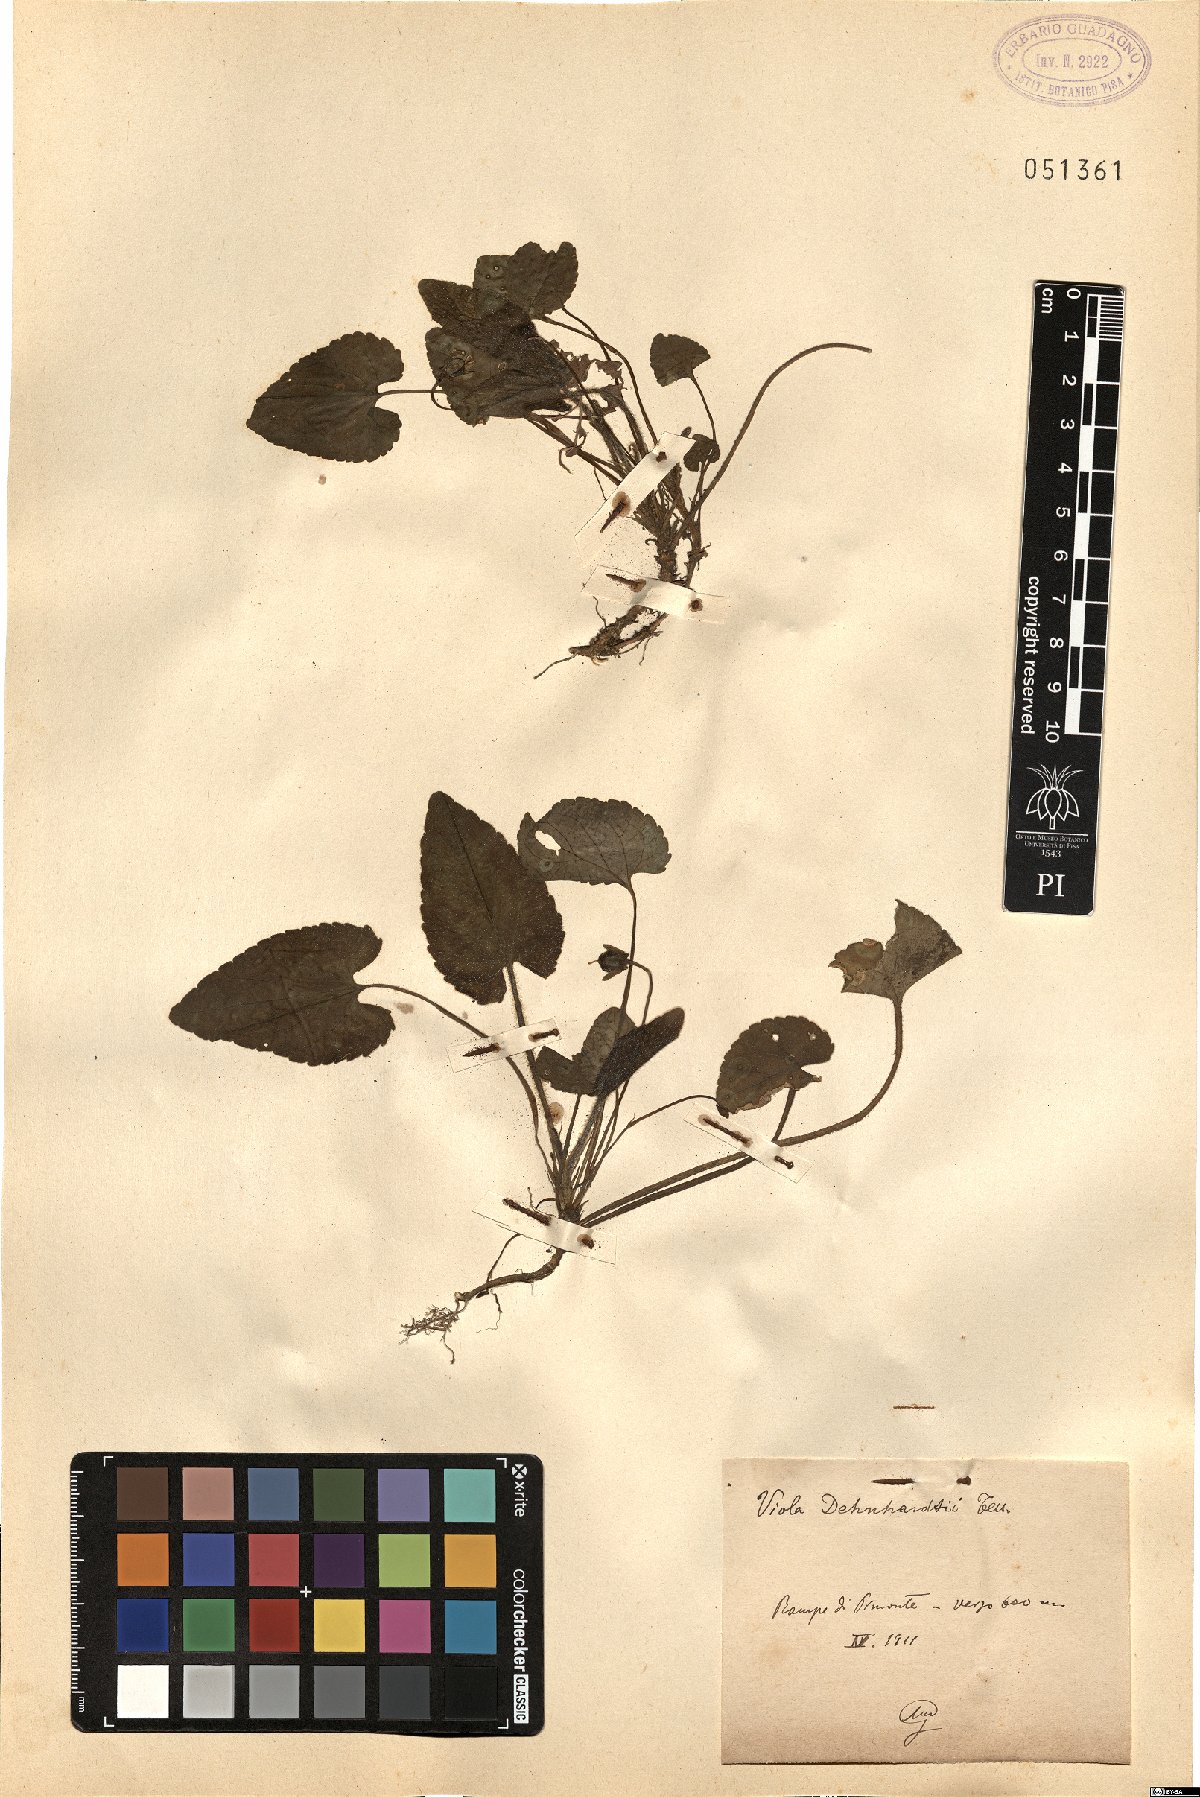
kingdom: Plantae
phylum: Tracheophyta
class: Magnoliopsida
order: Malpighiales
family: Violaceae
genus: Viola
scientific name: Viola alba
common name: White violet
